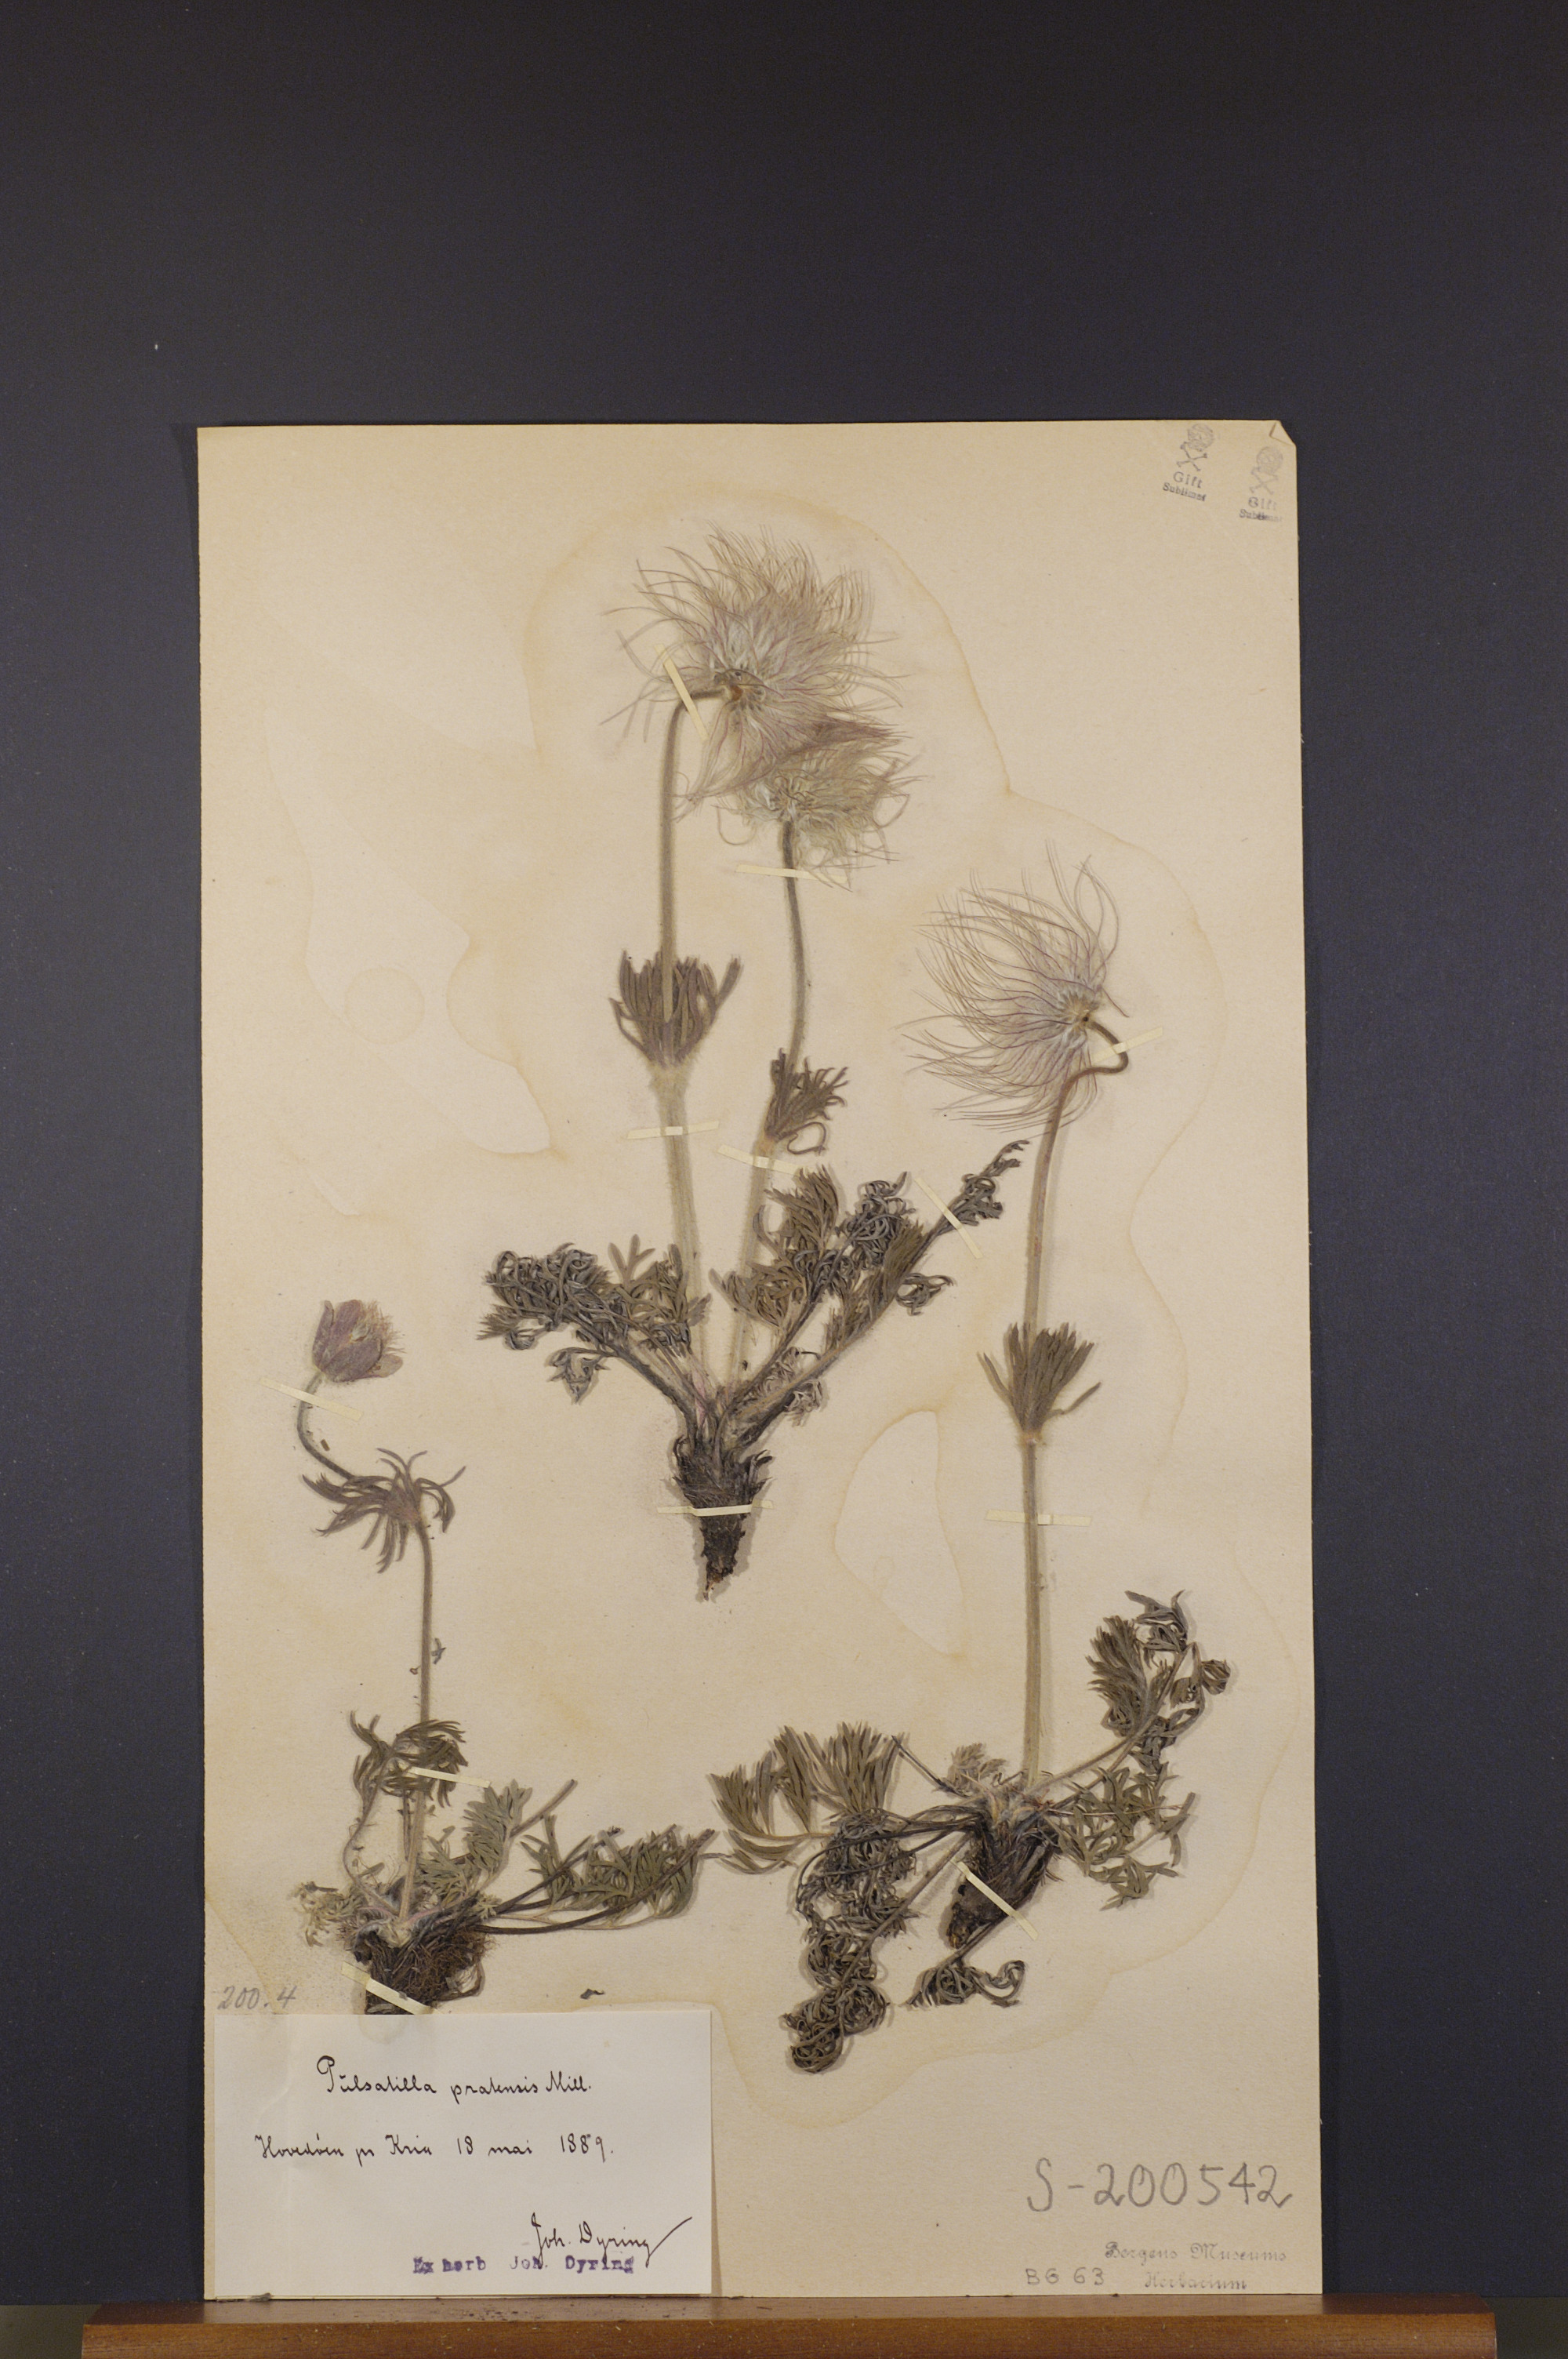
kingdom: Plantae
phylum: Tracheophyta
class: Magnoliopsida
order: Ranunculales
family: Ranunculaceae
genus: Pulsatilla
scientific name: Pulsatilla pratensis
